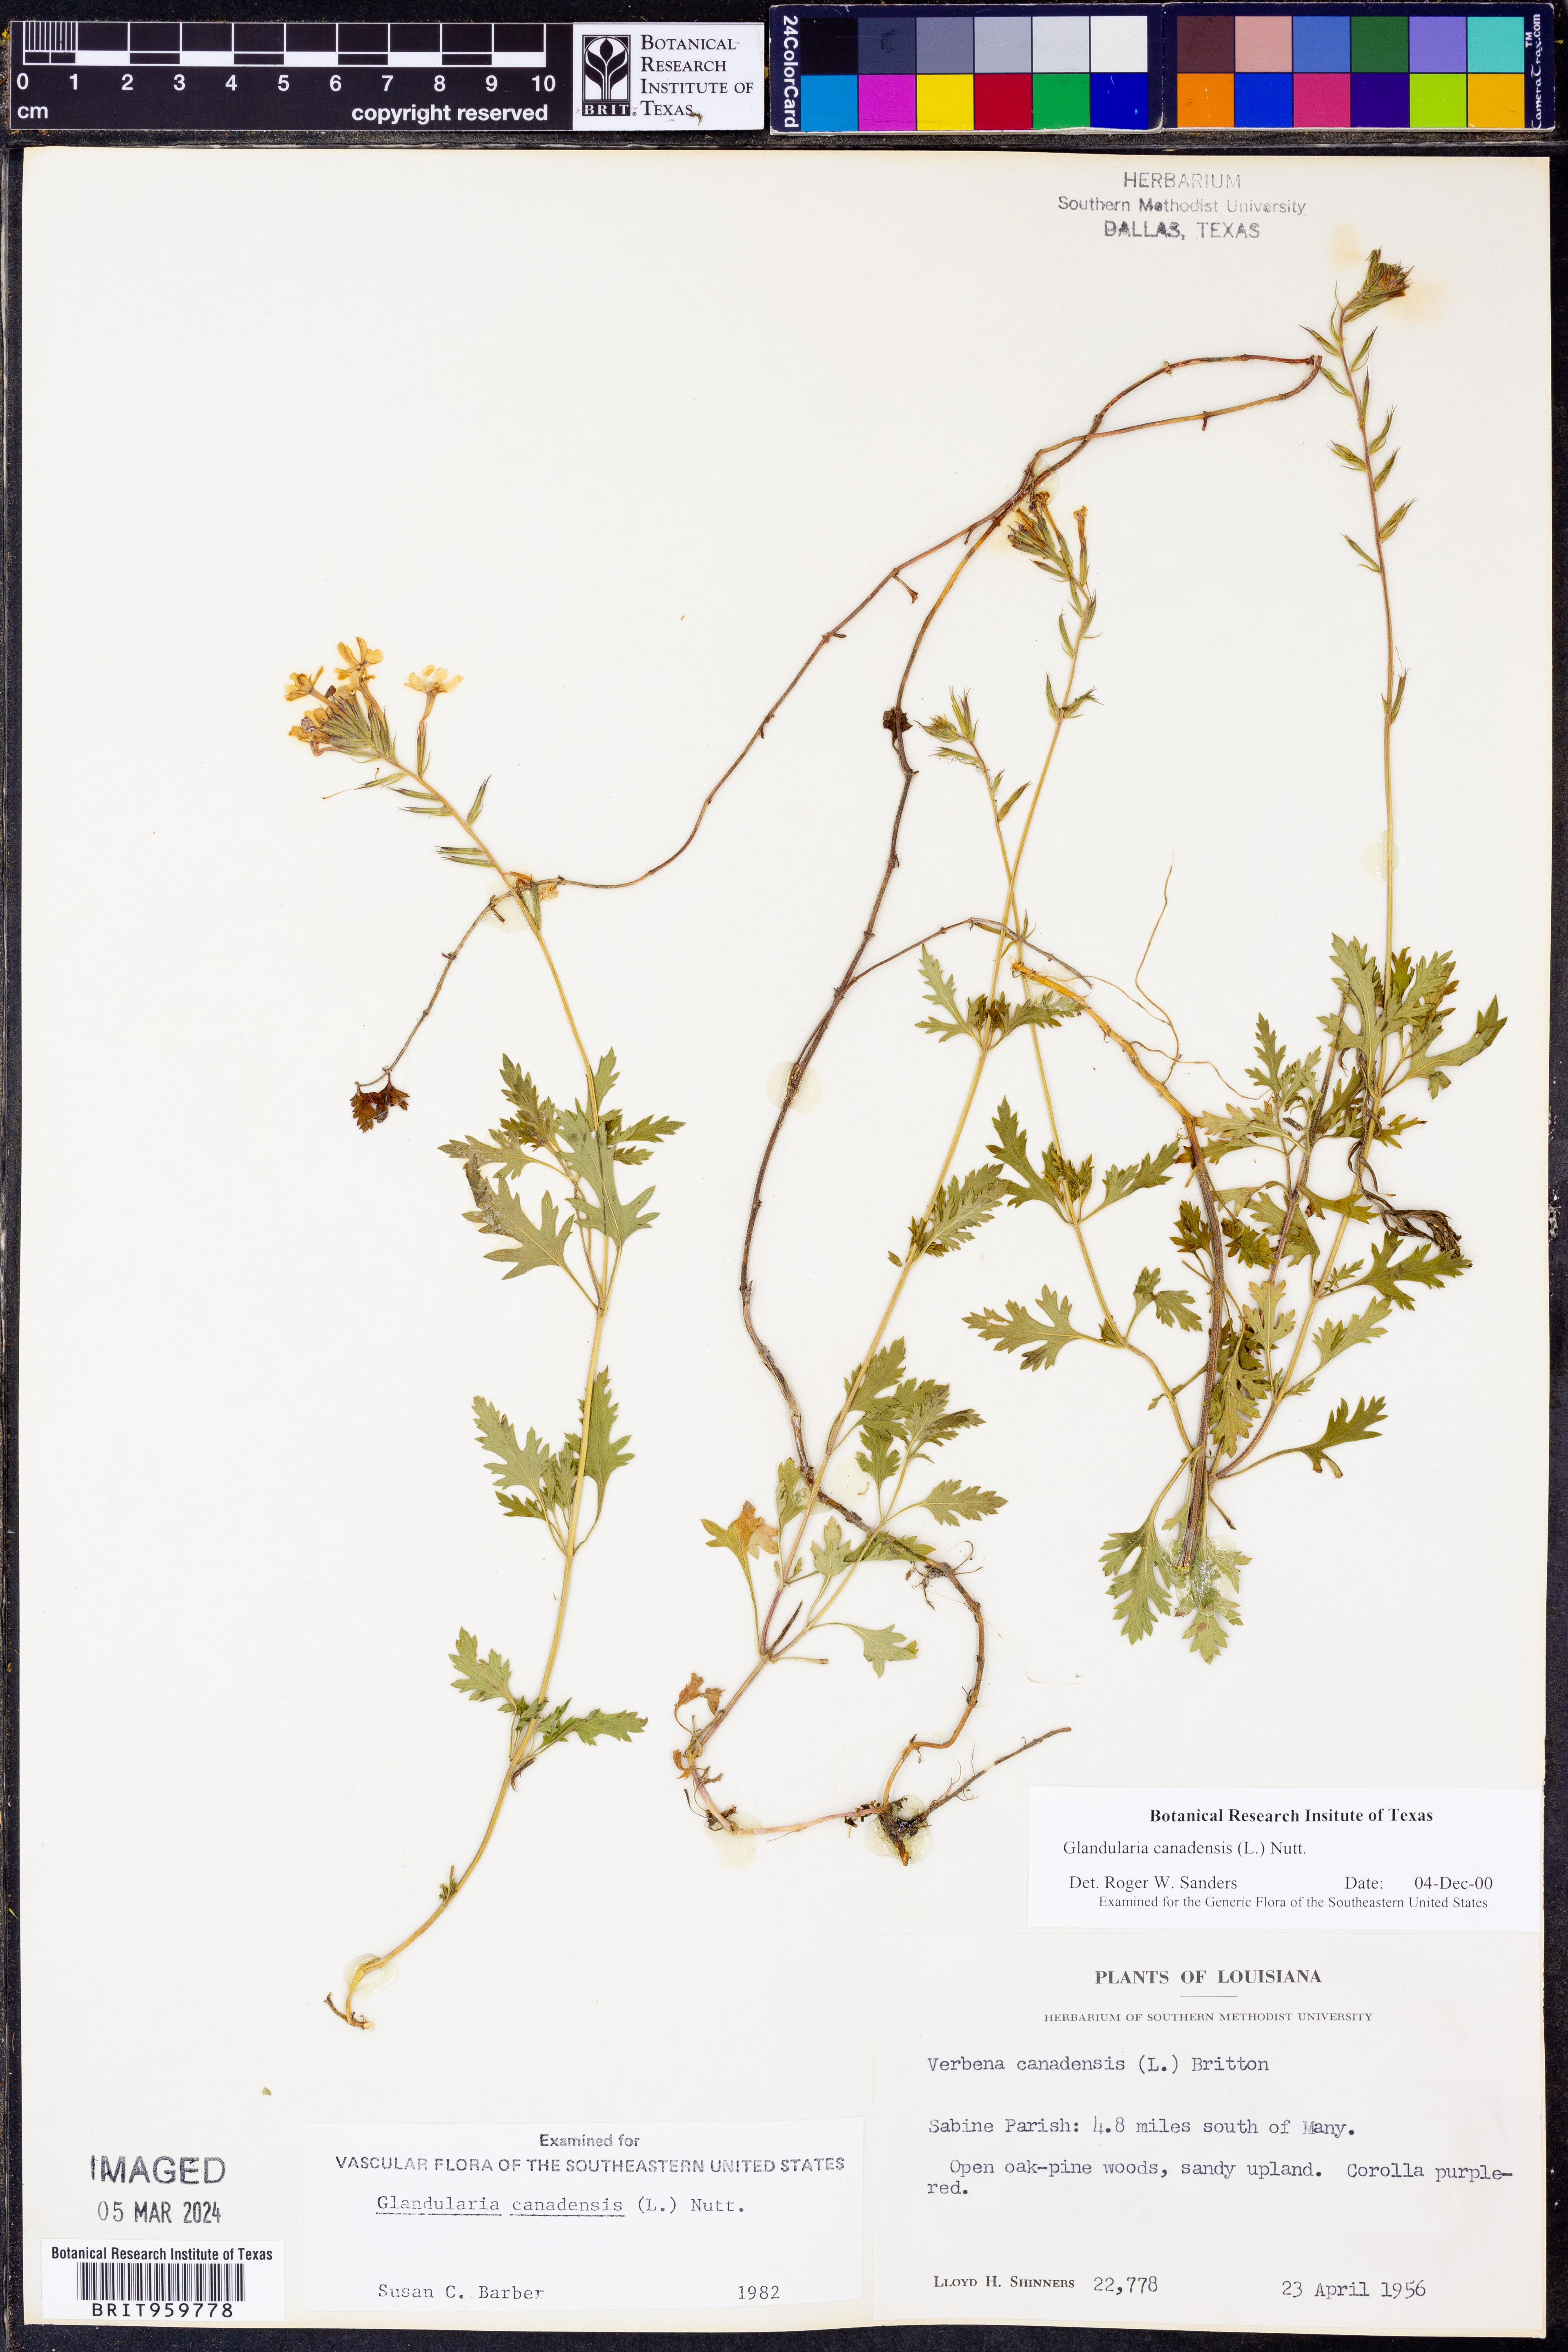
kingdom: Plantae
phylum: Tracheophyta
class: Magnoliopsida
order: Lamiales
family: Verbenaceae
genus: Verbena
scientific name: Verbena canadensis
